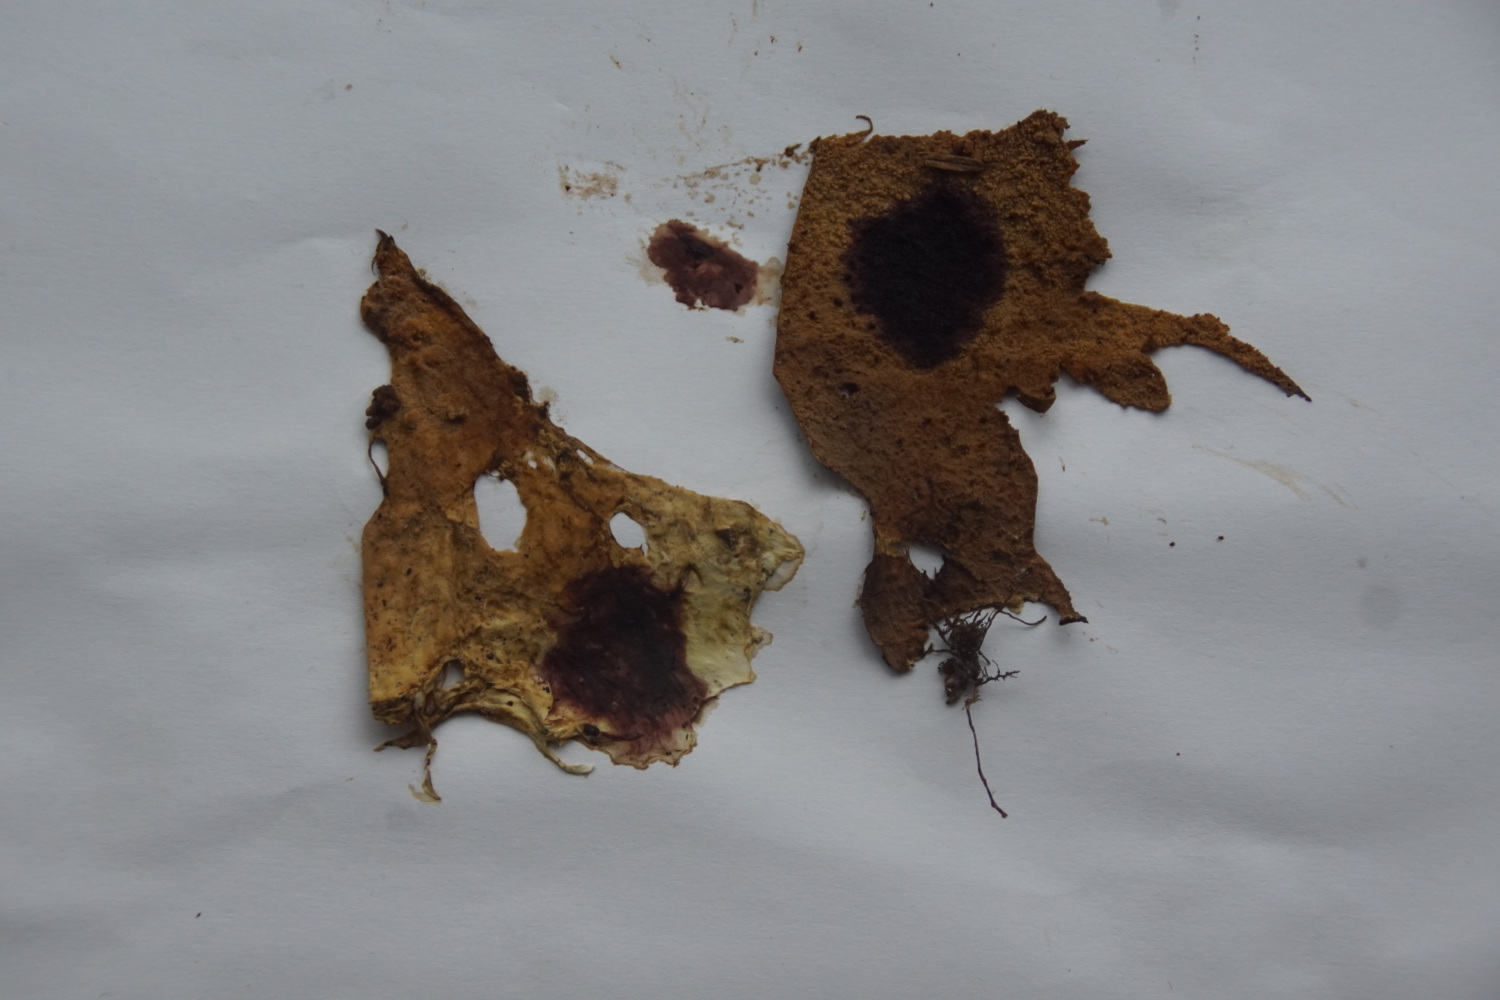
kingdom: Fungi
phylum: Basidiomycota
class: Agaricomycetes
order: Polyporales
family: Phanerochaetaceae
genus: Rhizochaete
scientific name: Rhizochaete radicata
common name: orangebrun randtråd
